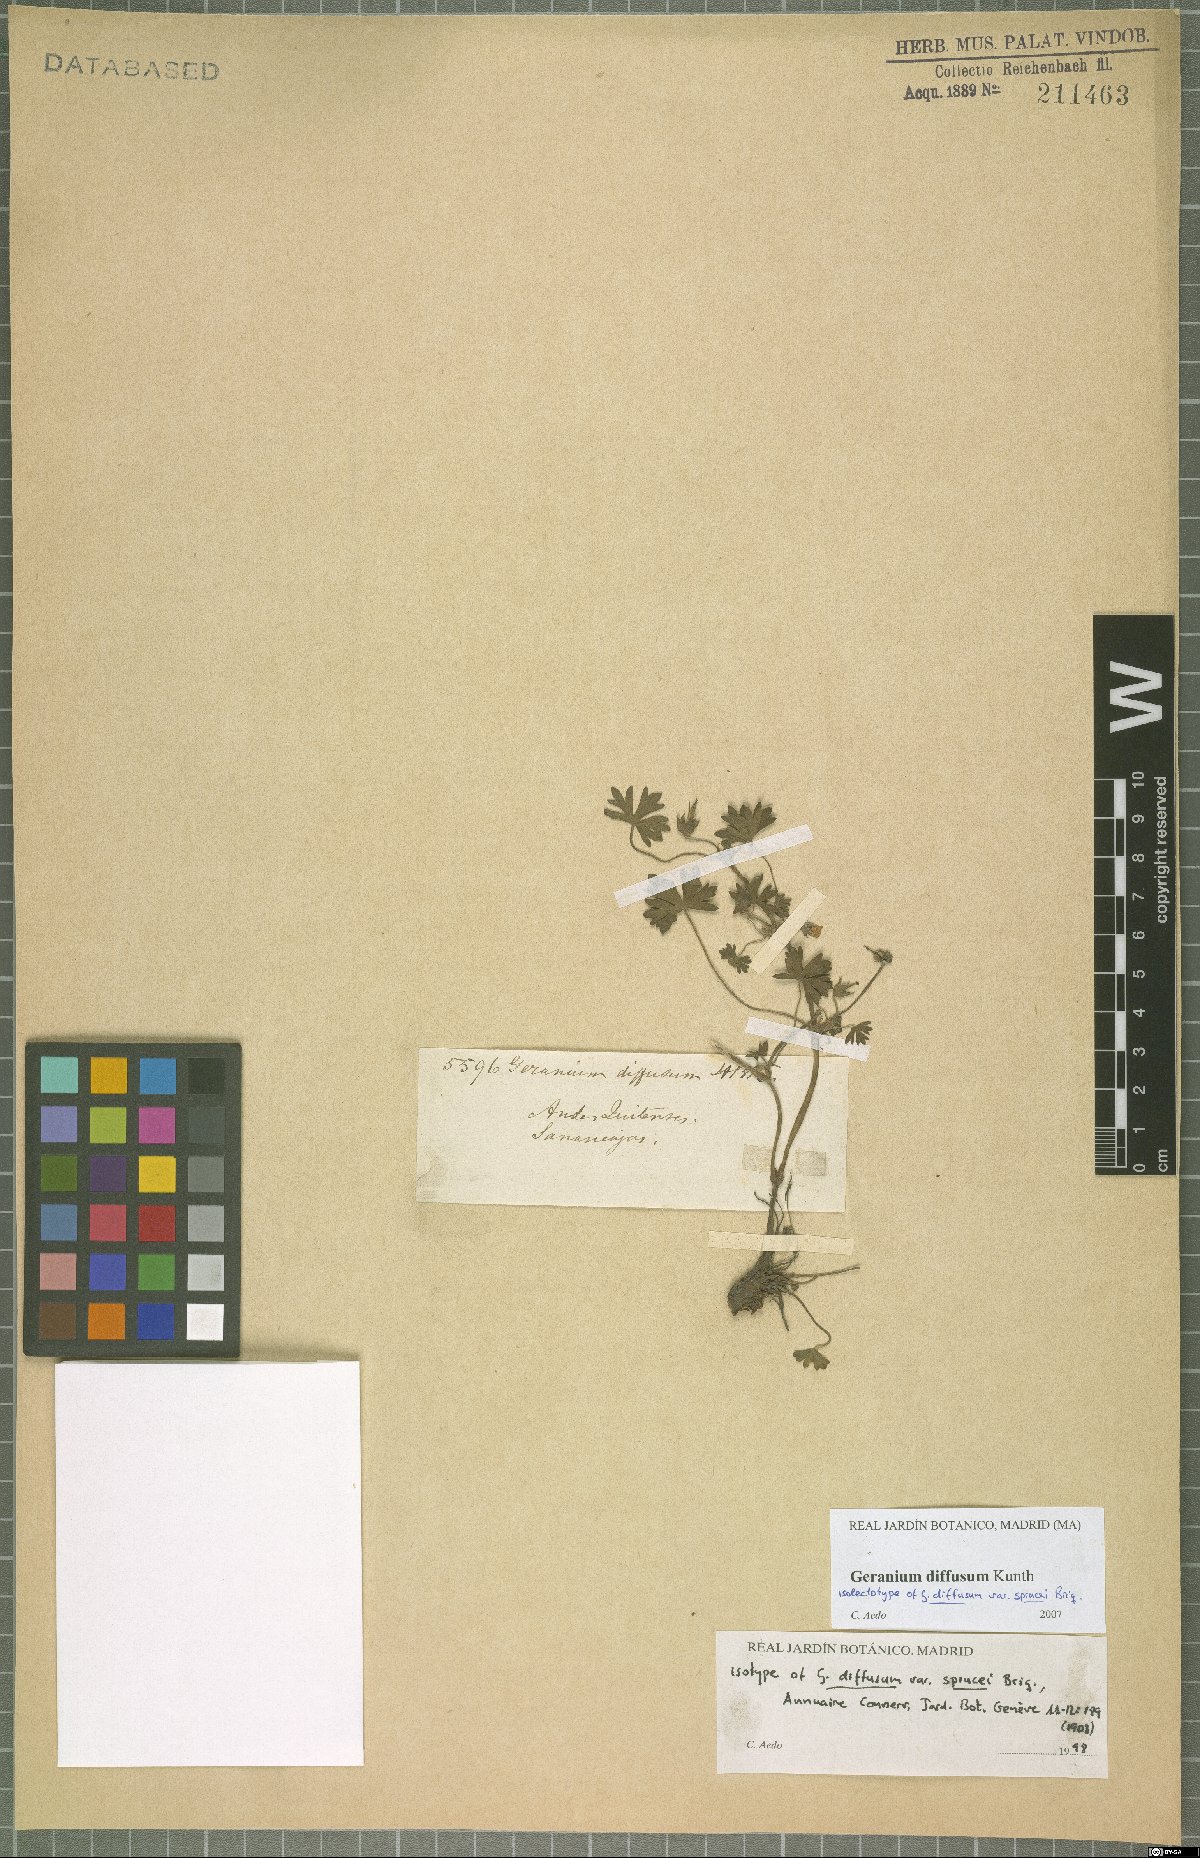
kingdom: Plantae
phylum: Tracheophyta
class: Magnoliopsida
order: Geraniales
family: Geraniaceae
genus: Geranium
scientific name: Geranium diffusum
